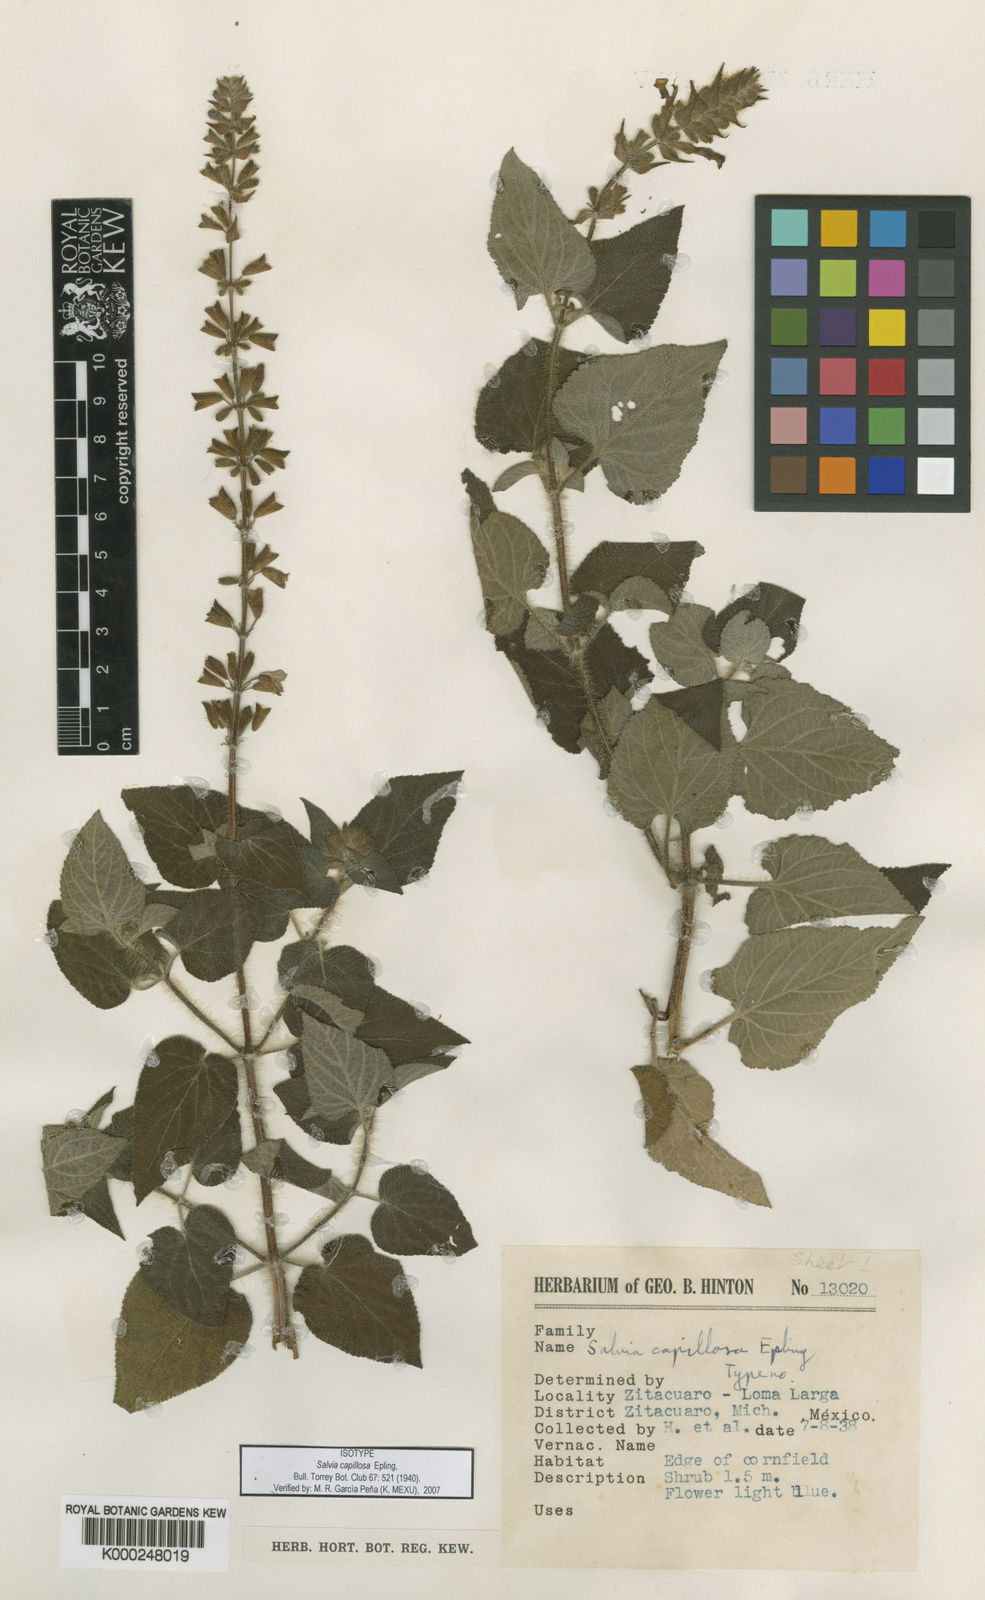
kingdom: Plantae
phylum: Tracheophyta
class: Magnoliopsida
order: Lamiales
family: Lamiaceae
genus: Salvia
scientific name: Salvia circinnata
